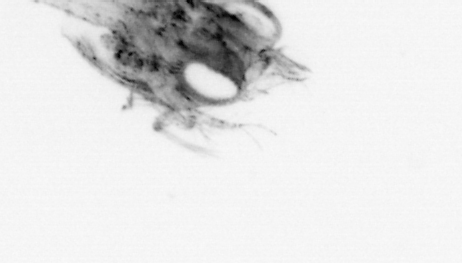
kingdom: Animalia
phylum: Arthropoda
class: Malacostraca
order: Decapoda
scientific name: Decapoda
